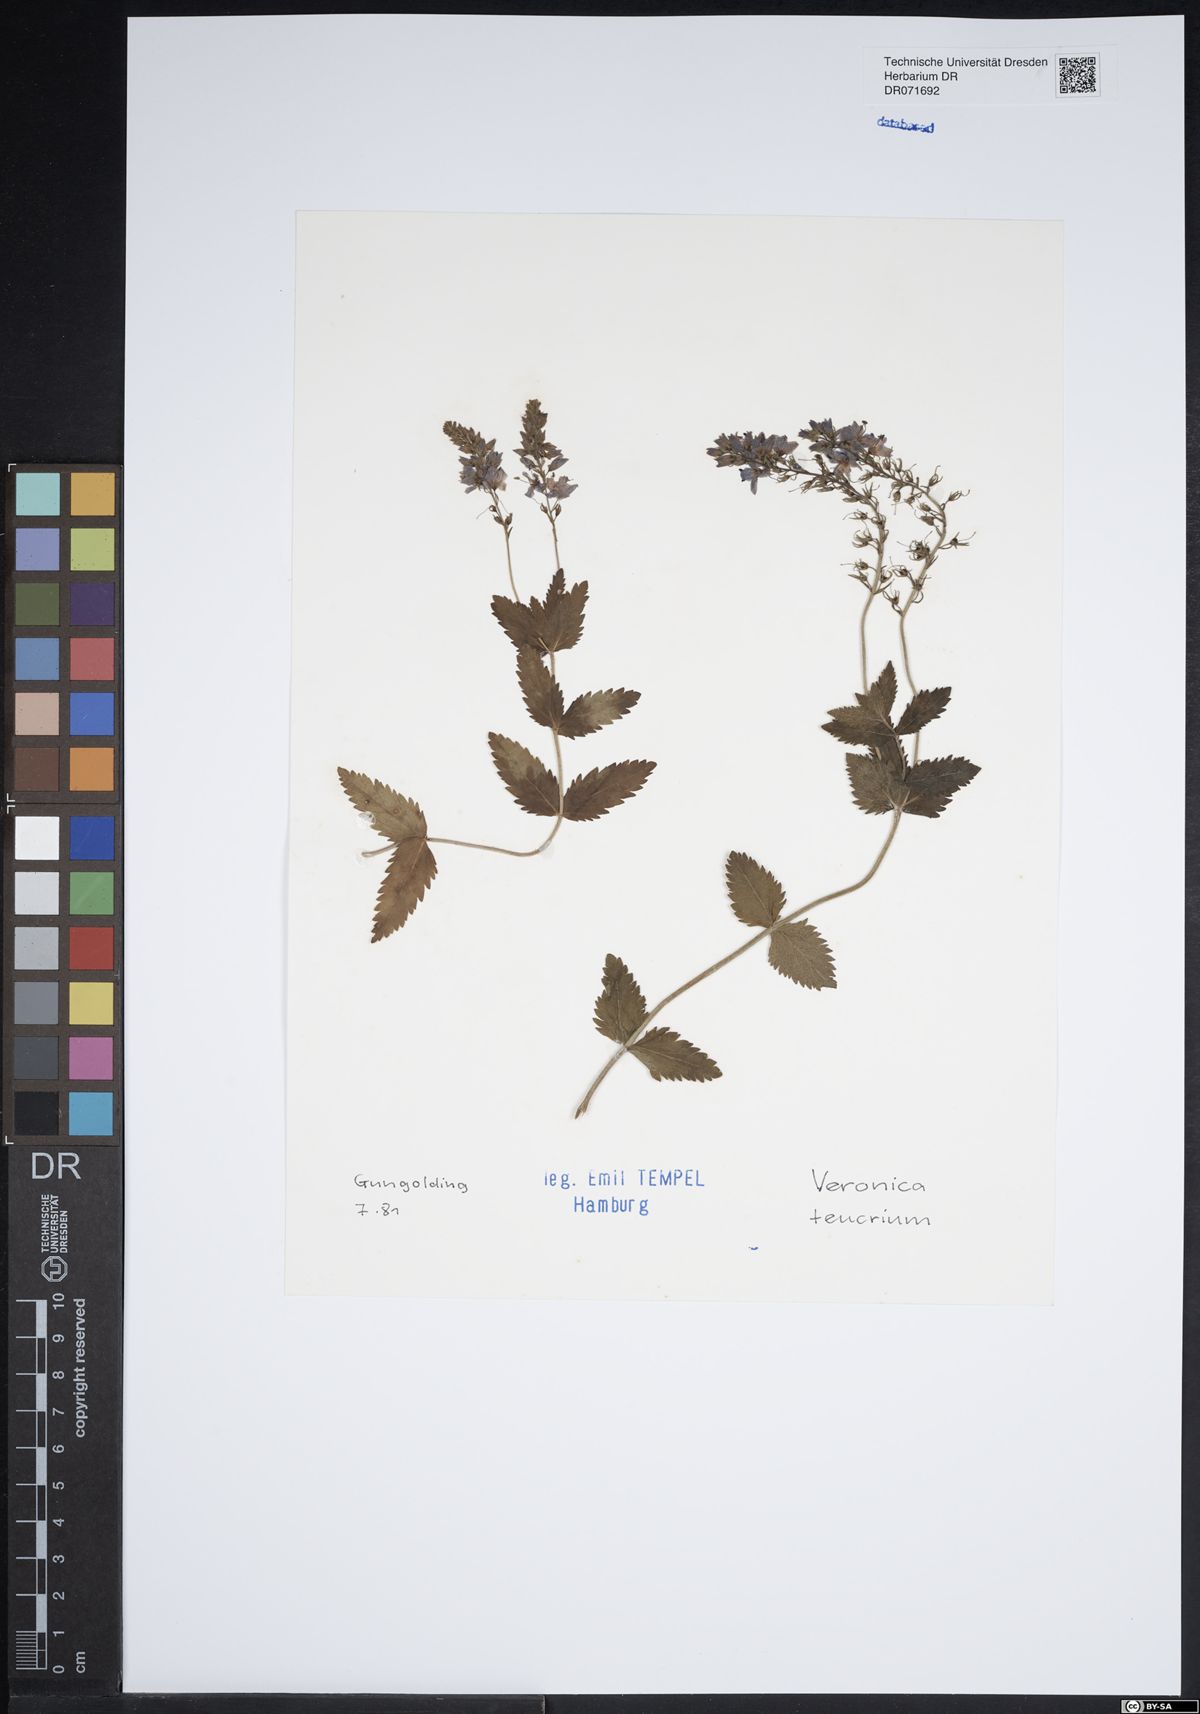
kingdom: Plantae
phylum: Tracheophyta
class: Magnoliopsida
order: Lamiales
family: Plantaginaceae
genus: Veronica
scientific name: Veronica teucrium
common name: Large speedwell
